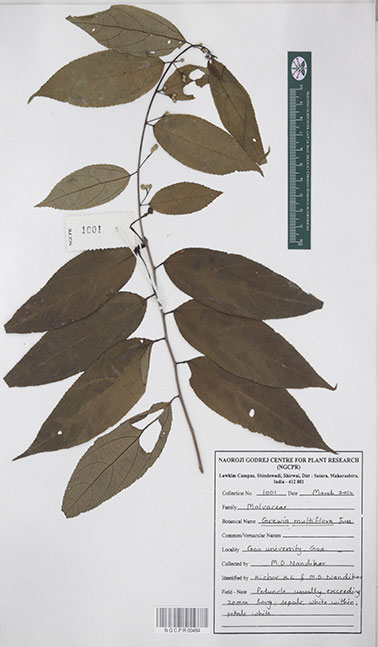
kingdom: Plantae
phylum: Tracheophyta
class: Magnoliopsida
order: Malvales
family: Malvaceae
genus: Grewia
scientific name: Grewia multiflora
